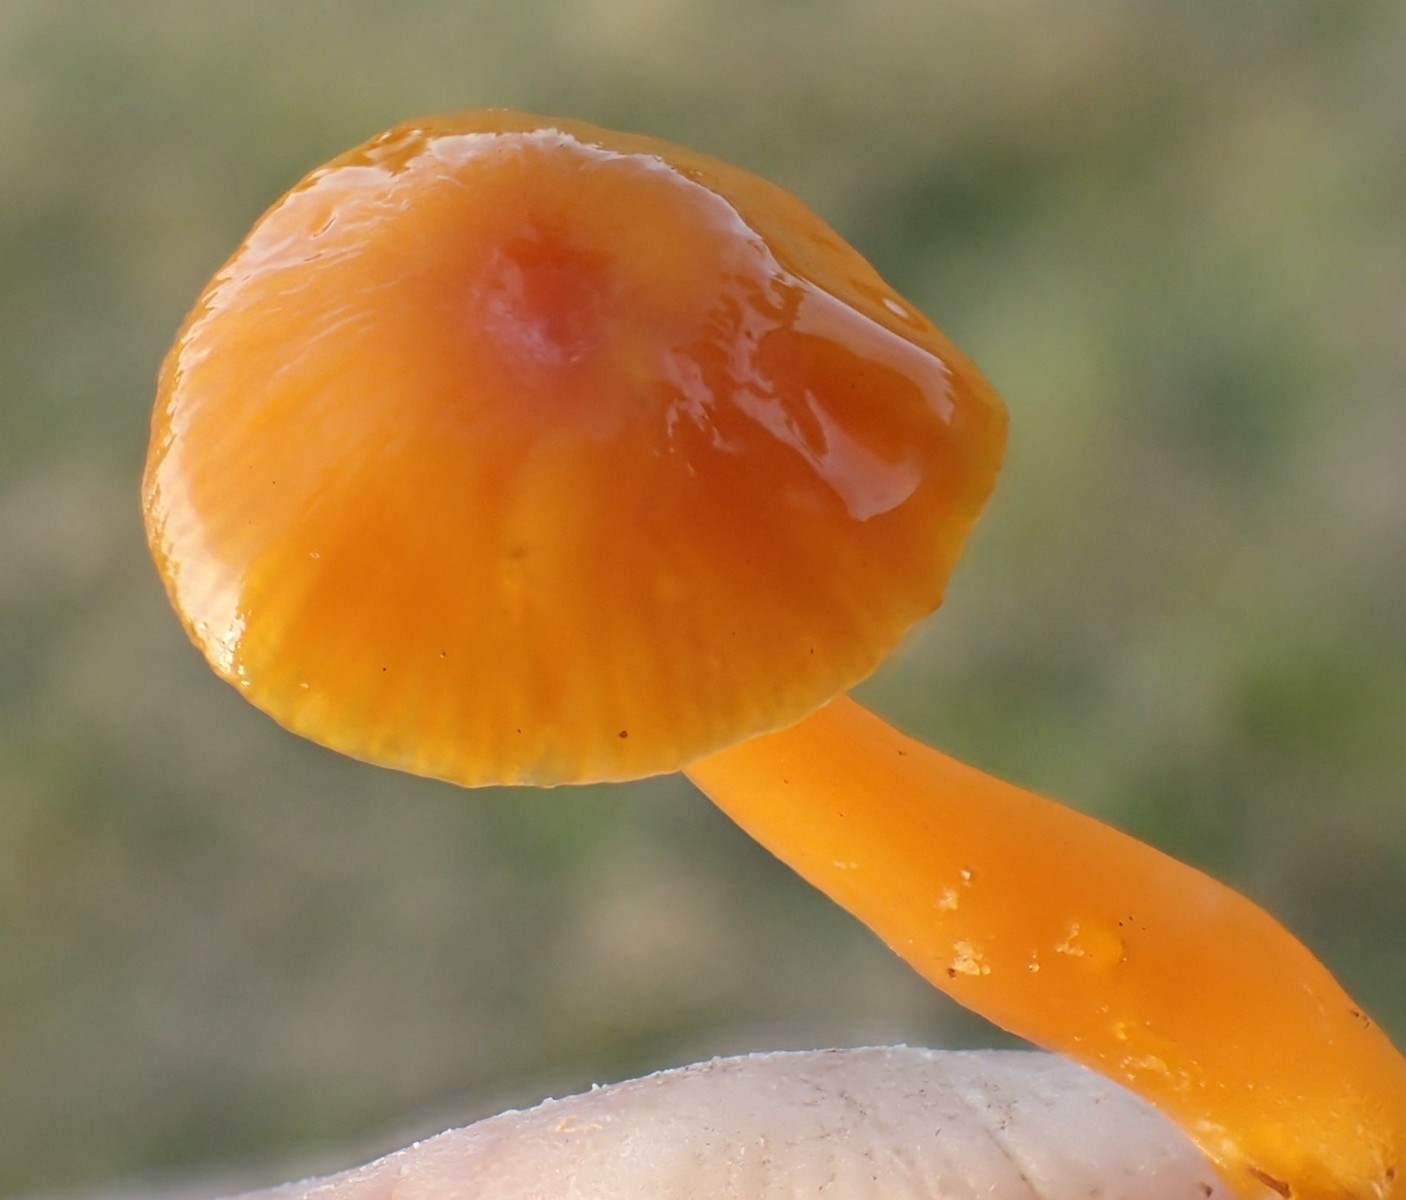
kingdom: Fungi
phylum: Basidiomycota
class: Agaricomycetes
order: Agaricales
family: Hygrophoraceae
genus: Gliophorus
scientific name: Gliophorus psittacinus
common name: papegøje-vokshat
